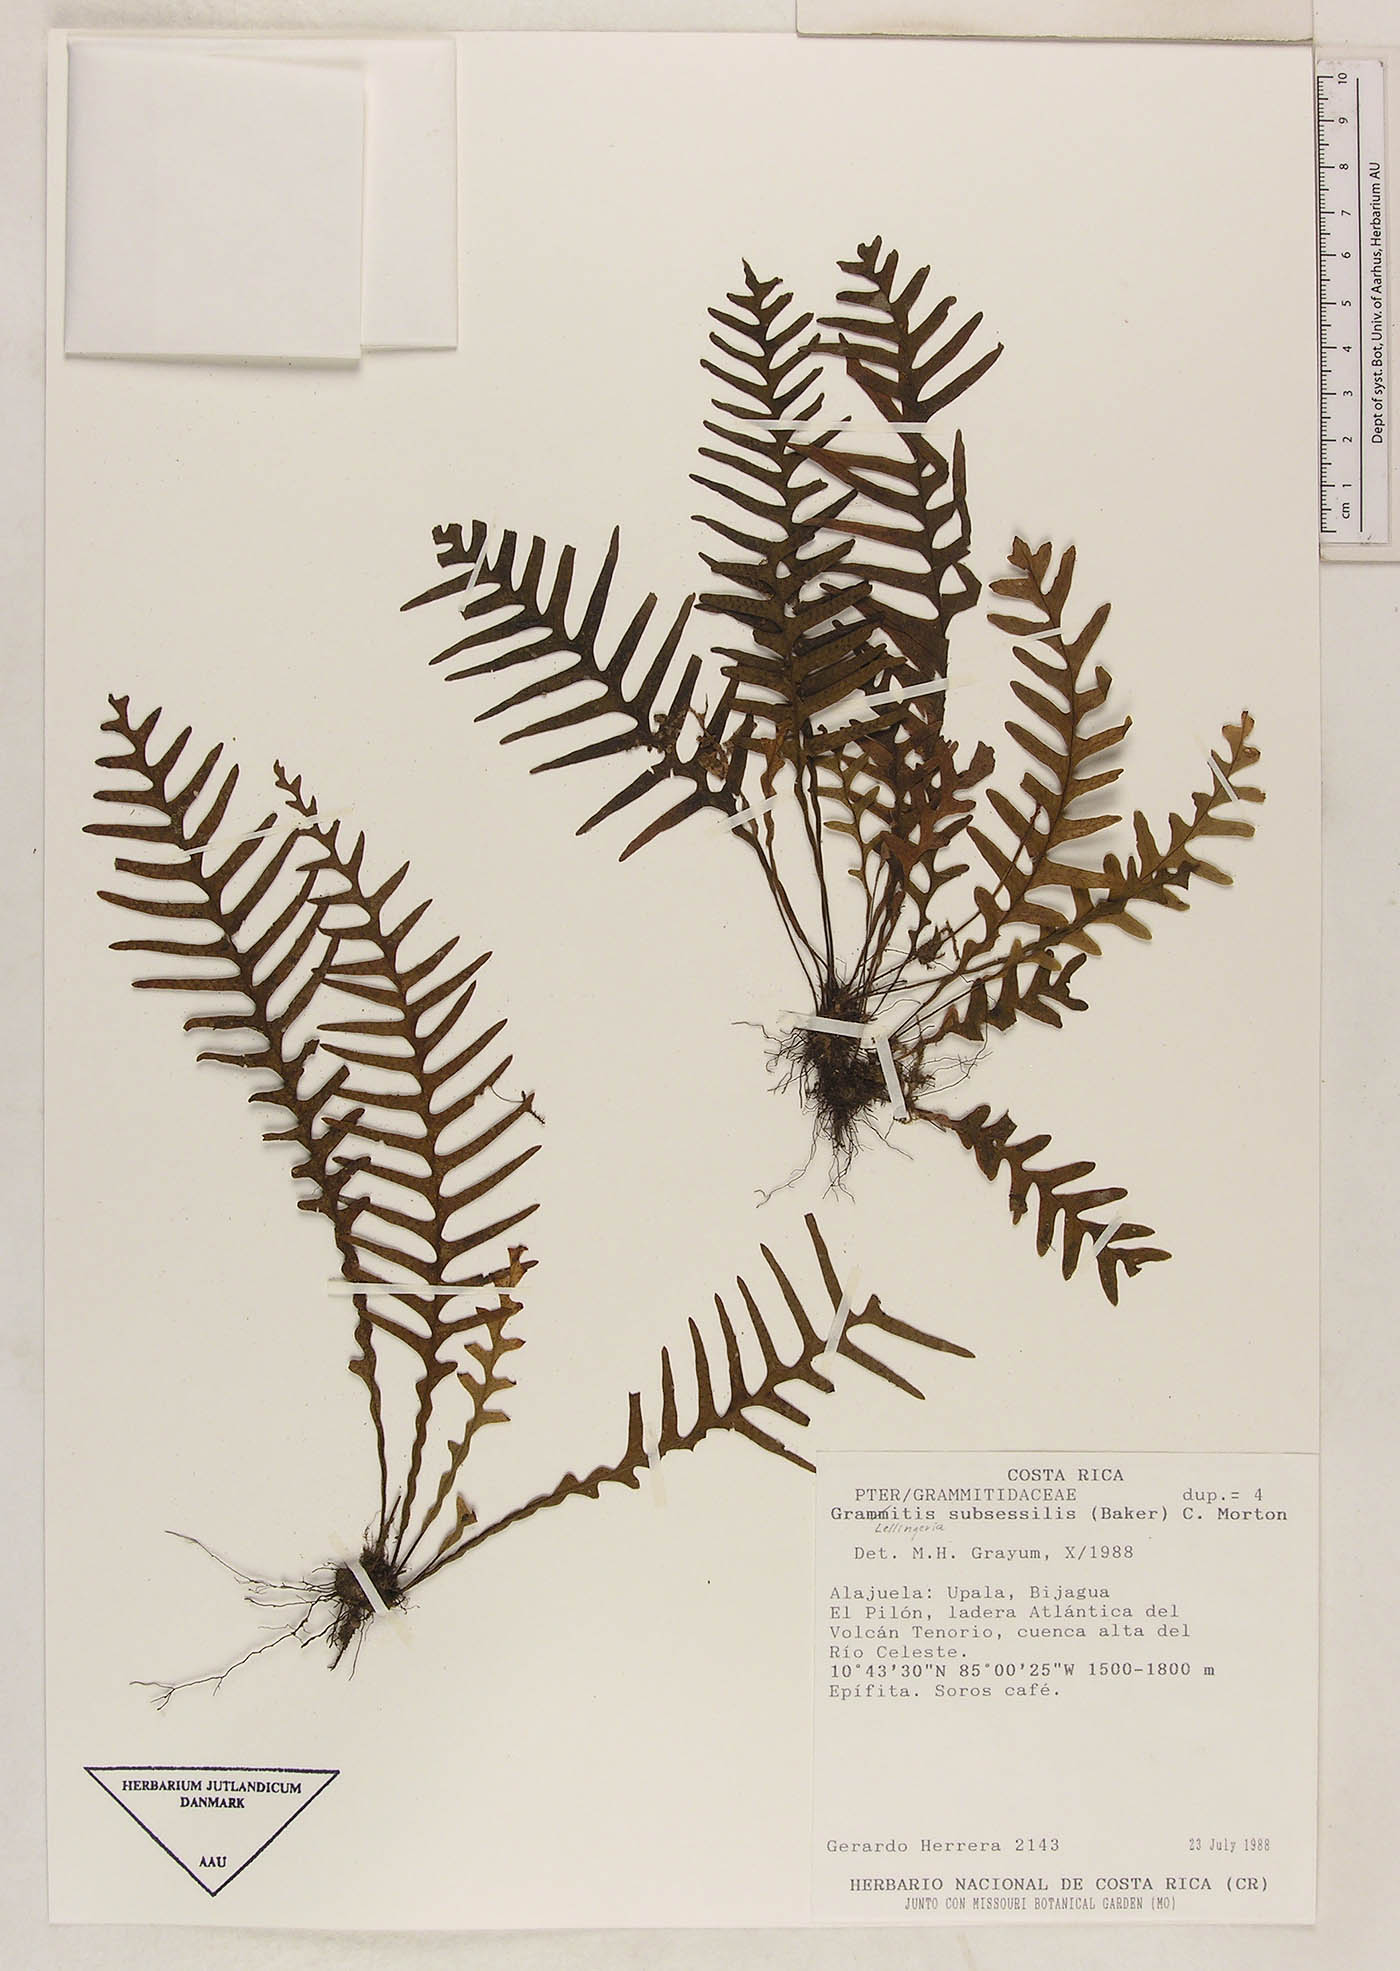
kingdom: Plantae
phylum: Tracheophyta
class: Polypodiopsida
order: Polypodiales
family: Polypodiaceae
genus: Lellingeria
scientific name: Lellingeria subsessilis
